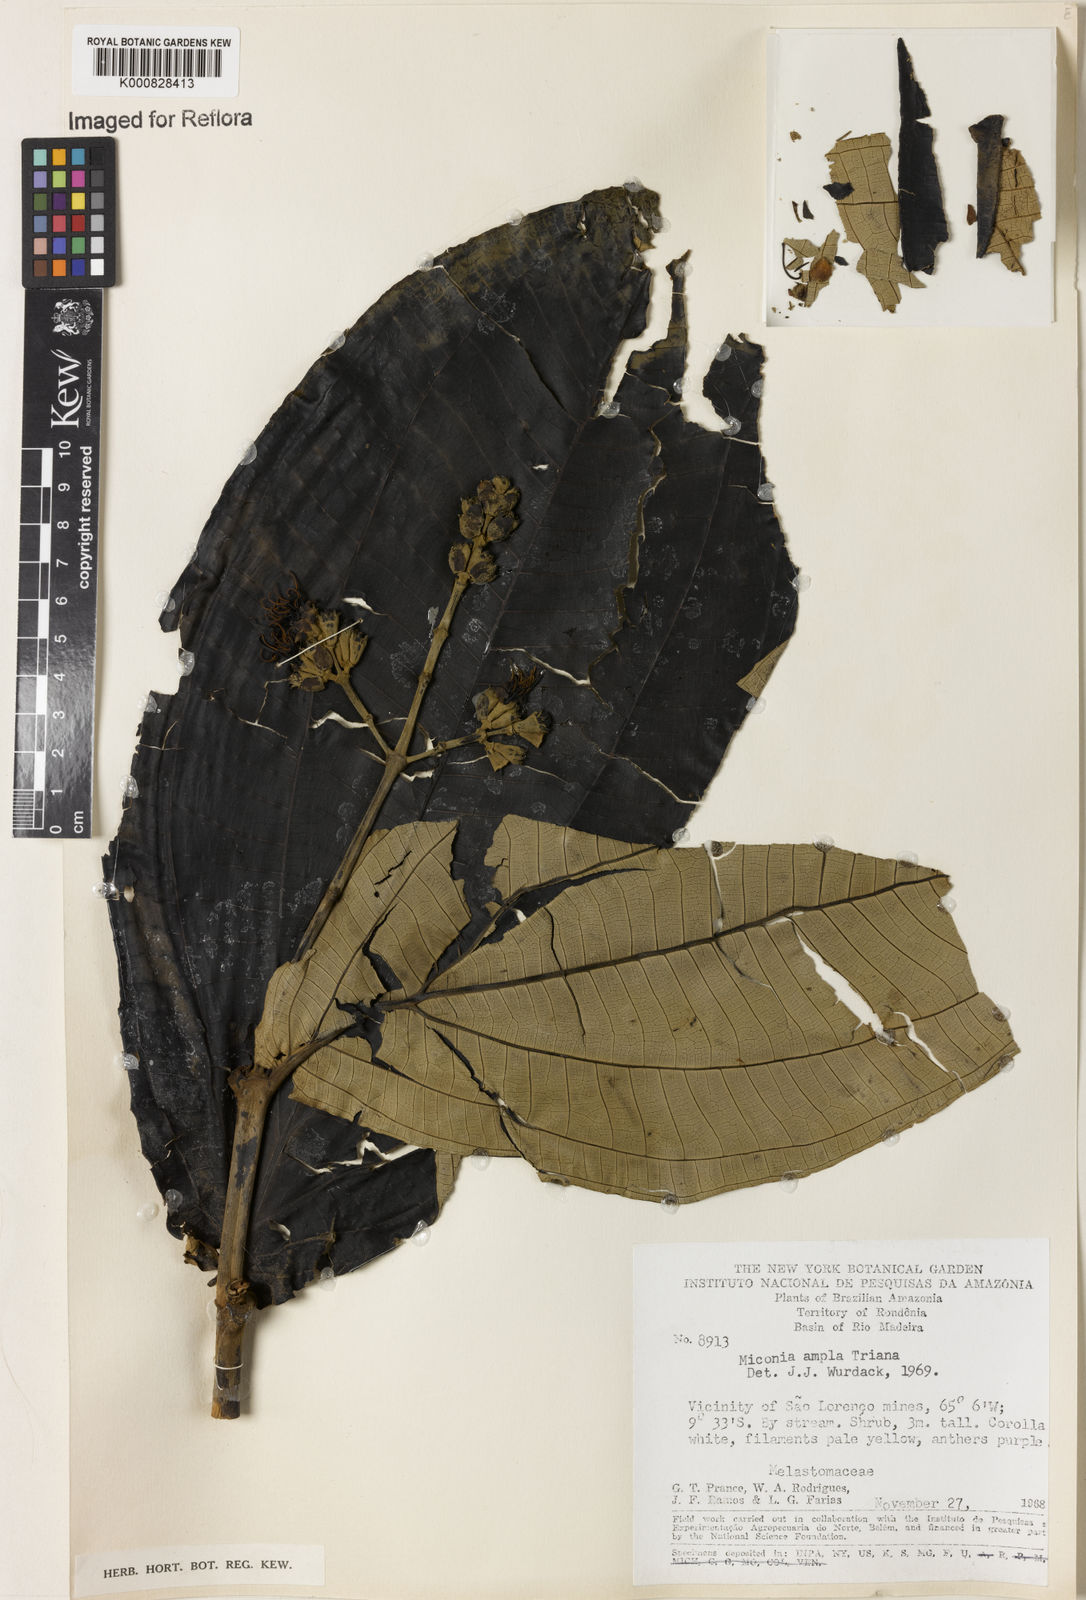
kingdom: Plantae
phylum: Tracheophyta
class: Magnoliopsida
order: Myrtales
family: Melastomataceae
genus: Miconia
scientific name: Miconia ampla
